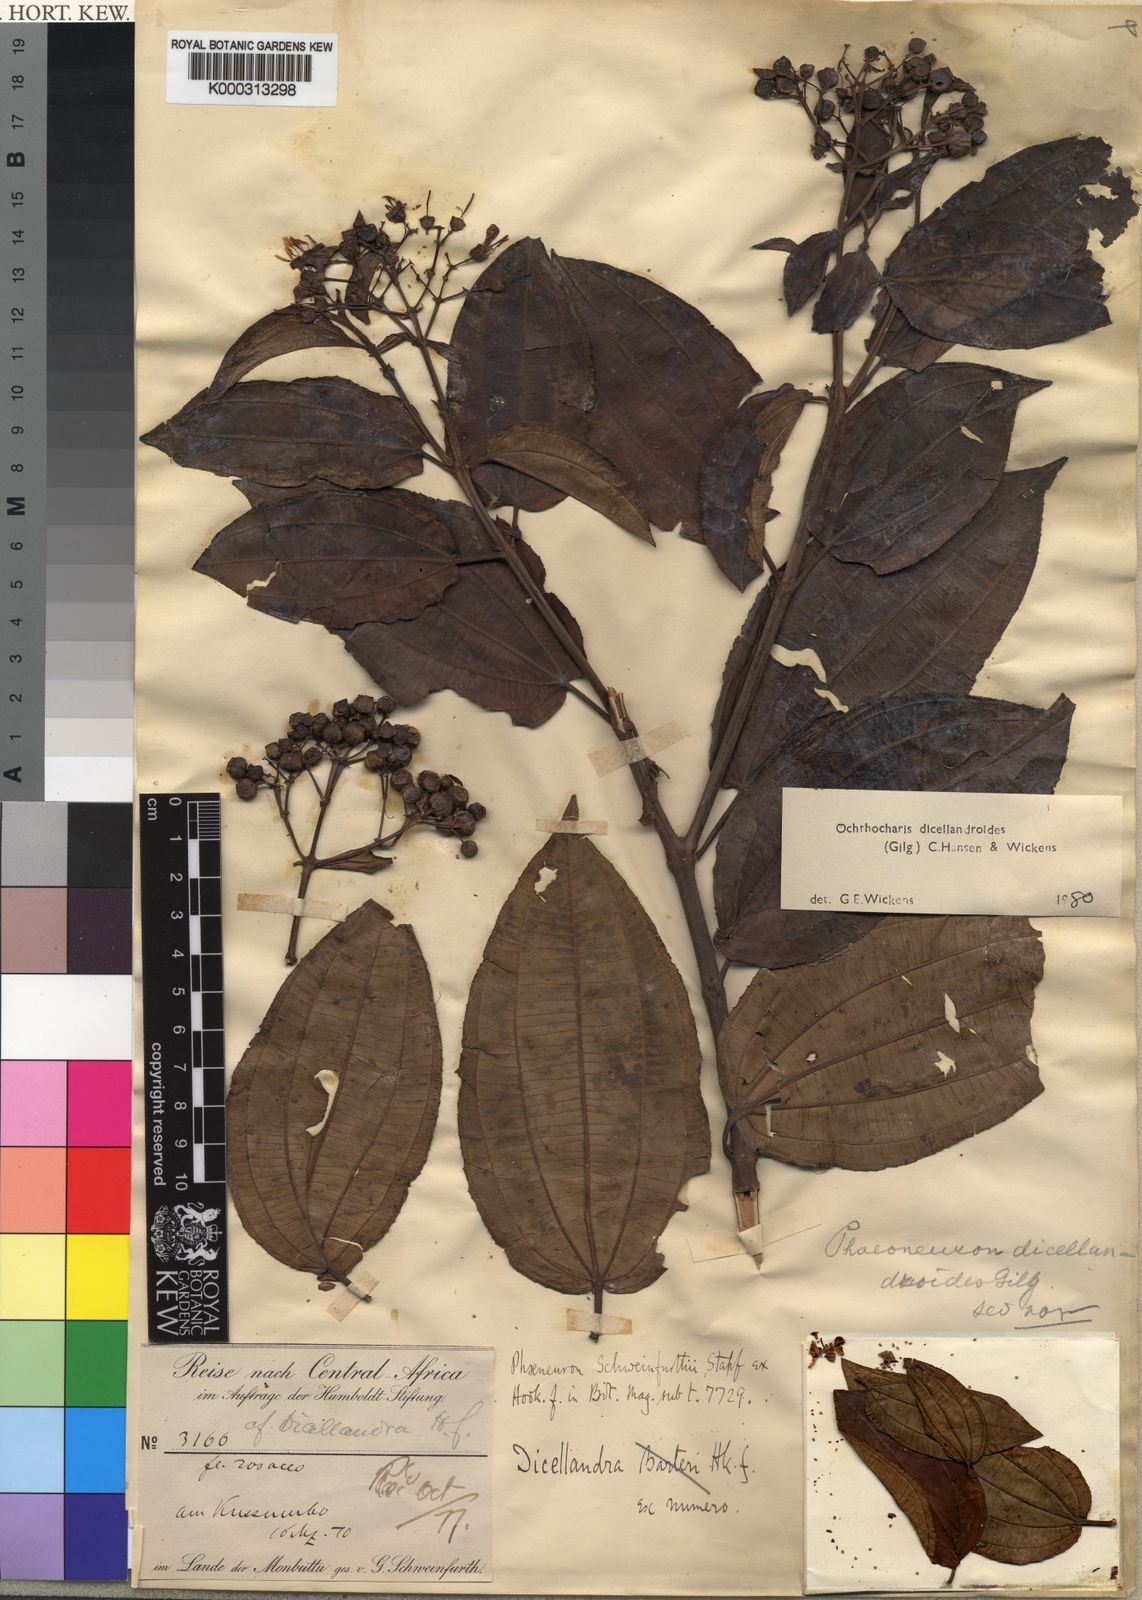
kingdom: Plantae
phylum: Tracheophyta
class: Magnoliopsida
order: Myrtales
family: Melastomataceae
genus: Ochthocharis
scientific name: Ochthocharis dicellandroides
